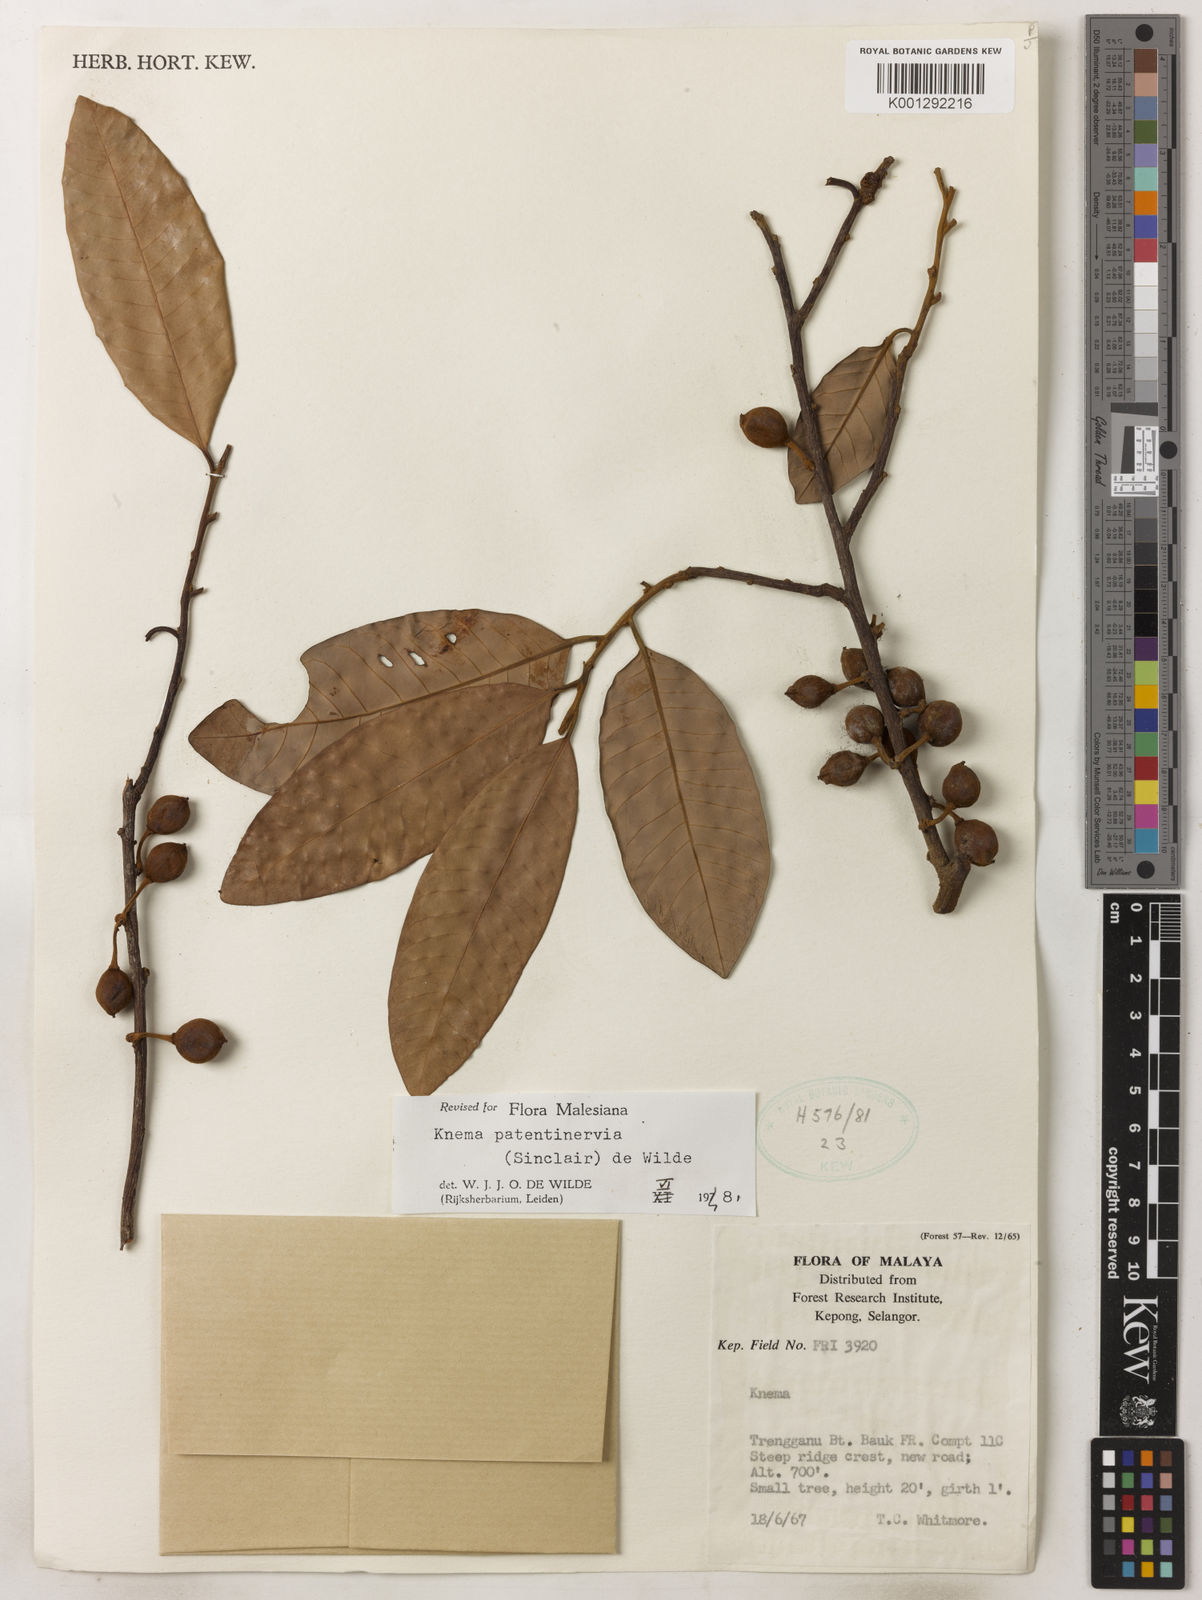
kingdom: Plantae
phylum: Tracheophyta
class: Magnoliopsida
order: Magnoliales
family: Myristicaceae
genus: Knema
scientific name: Knema patentinervia
